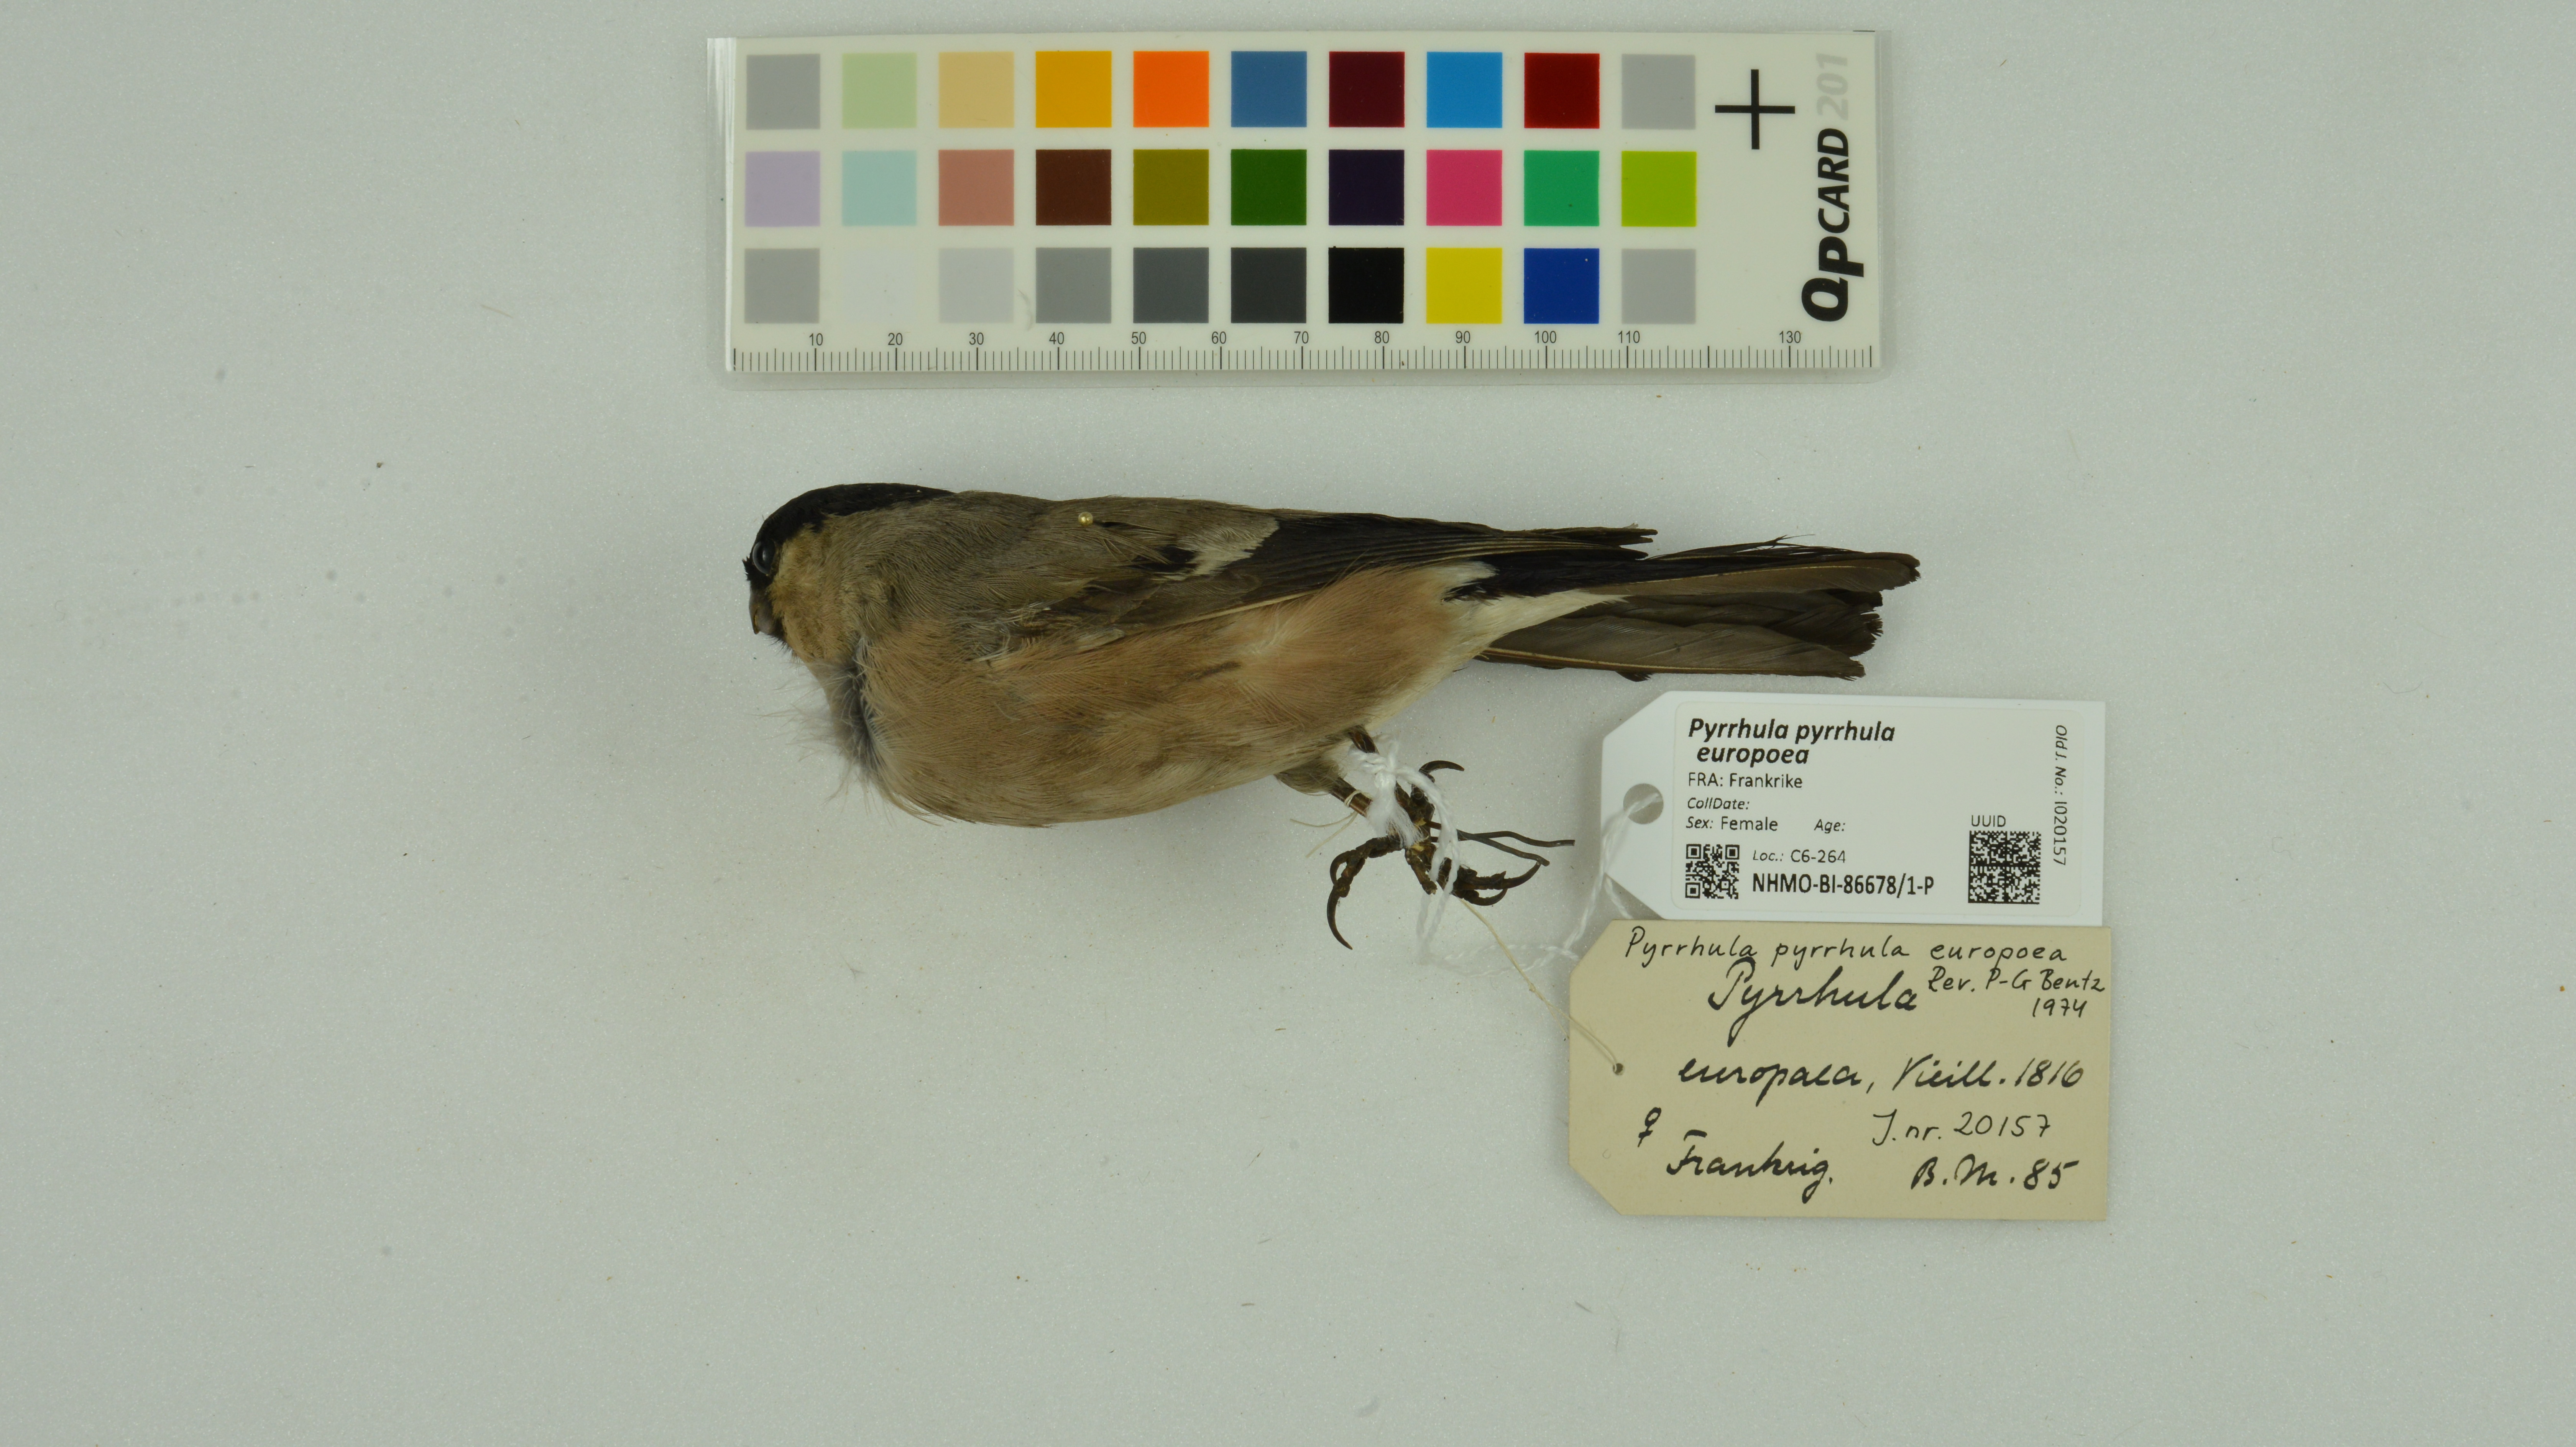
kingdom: Animalia
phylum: Chordata
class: Aves
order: Passeriformes
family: Fringillidae
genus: Pyrrhula
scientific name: Pyrrhula pyrrhula
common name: Eurasian bullfinch
